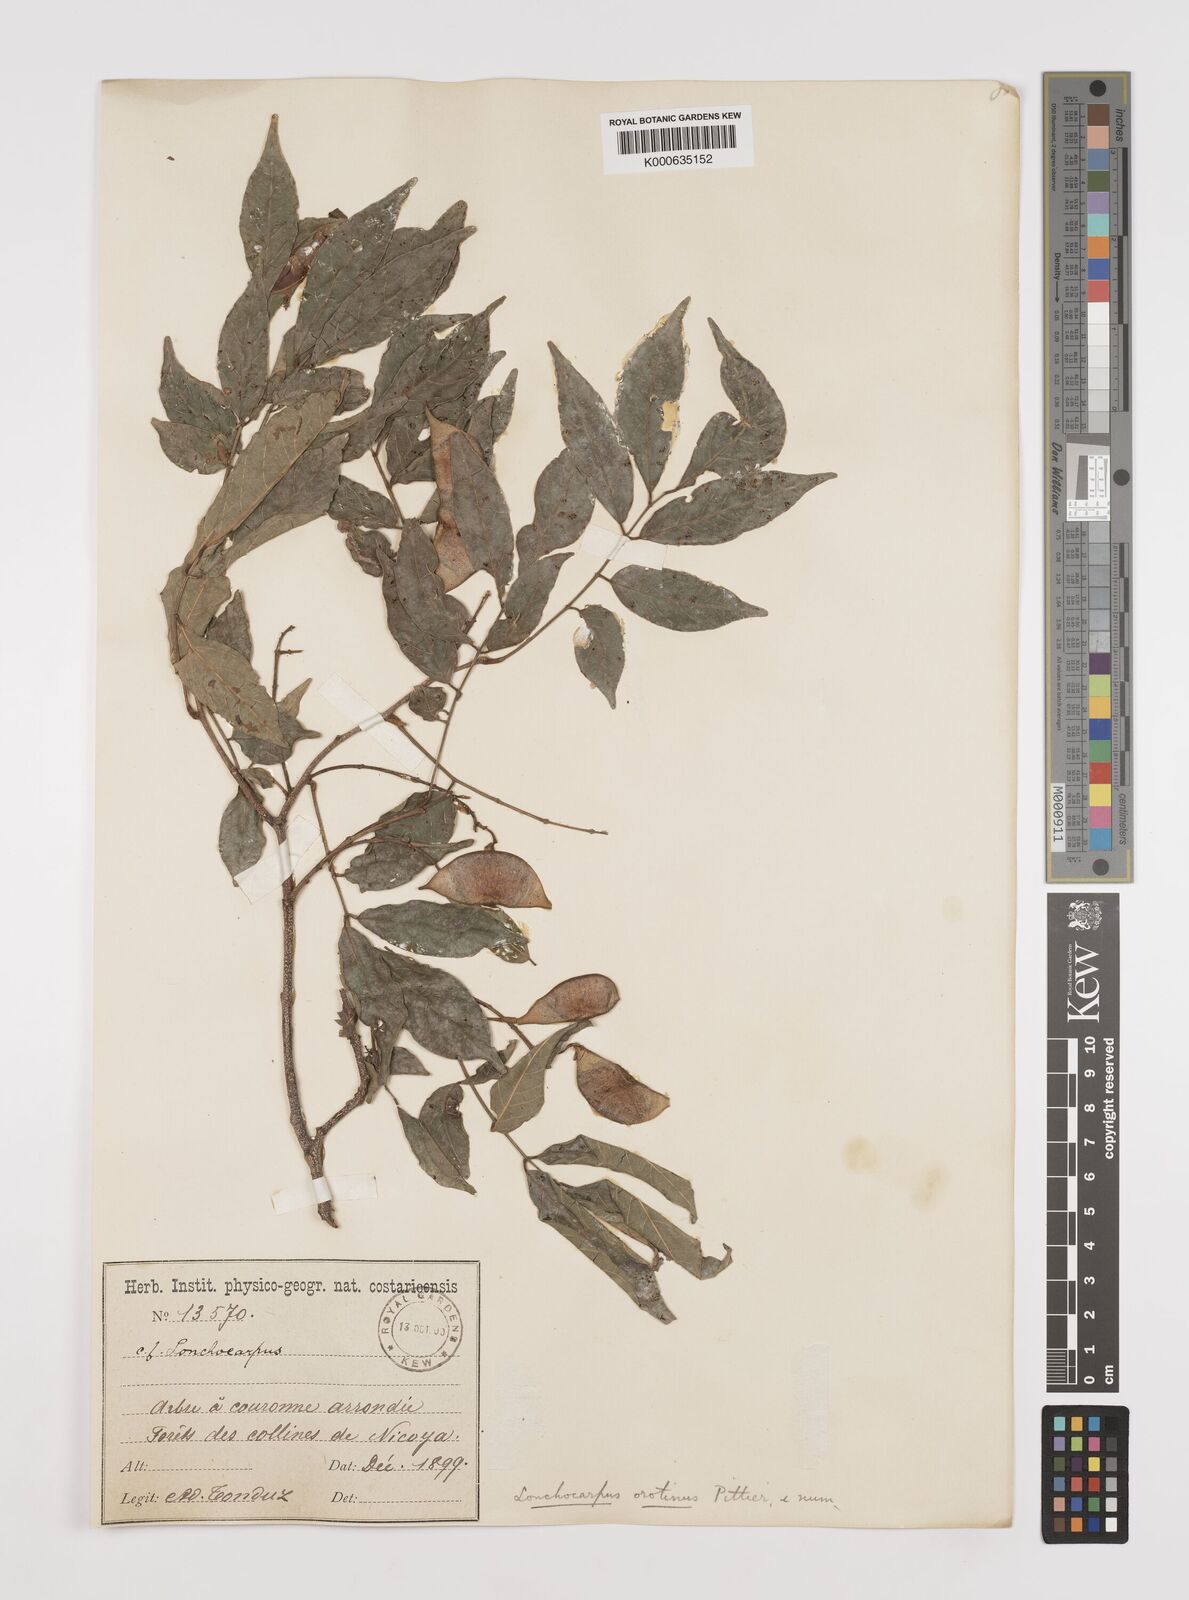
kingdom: Plantae
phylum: Tracheophyta
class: Magnoliopsida
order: Fabales
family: Fabaceae
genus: Lonchocarpus
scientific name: Lonchocarpus parviflorus
